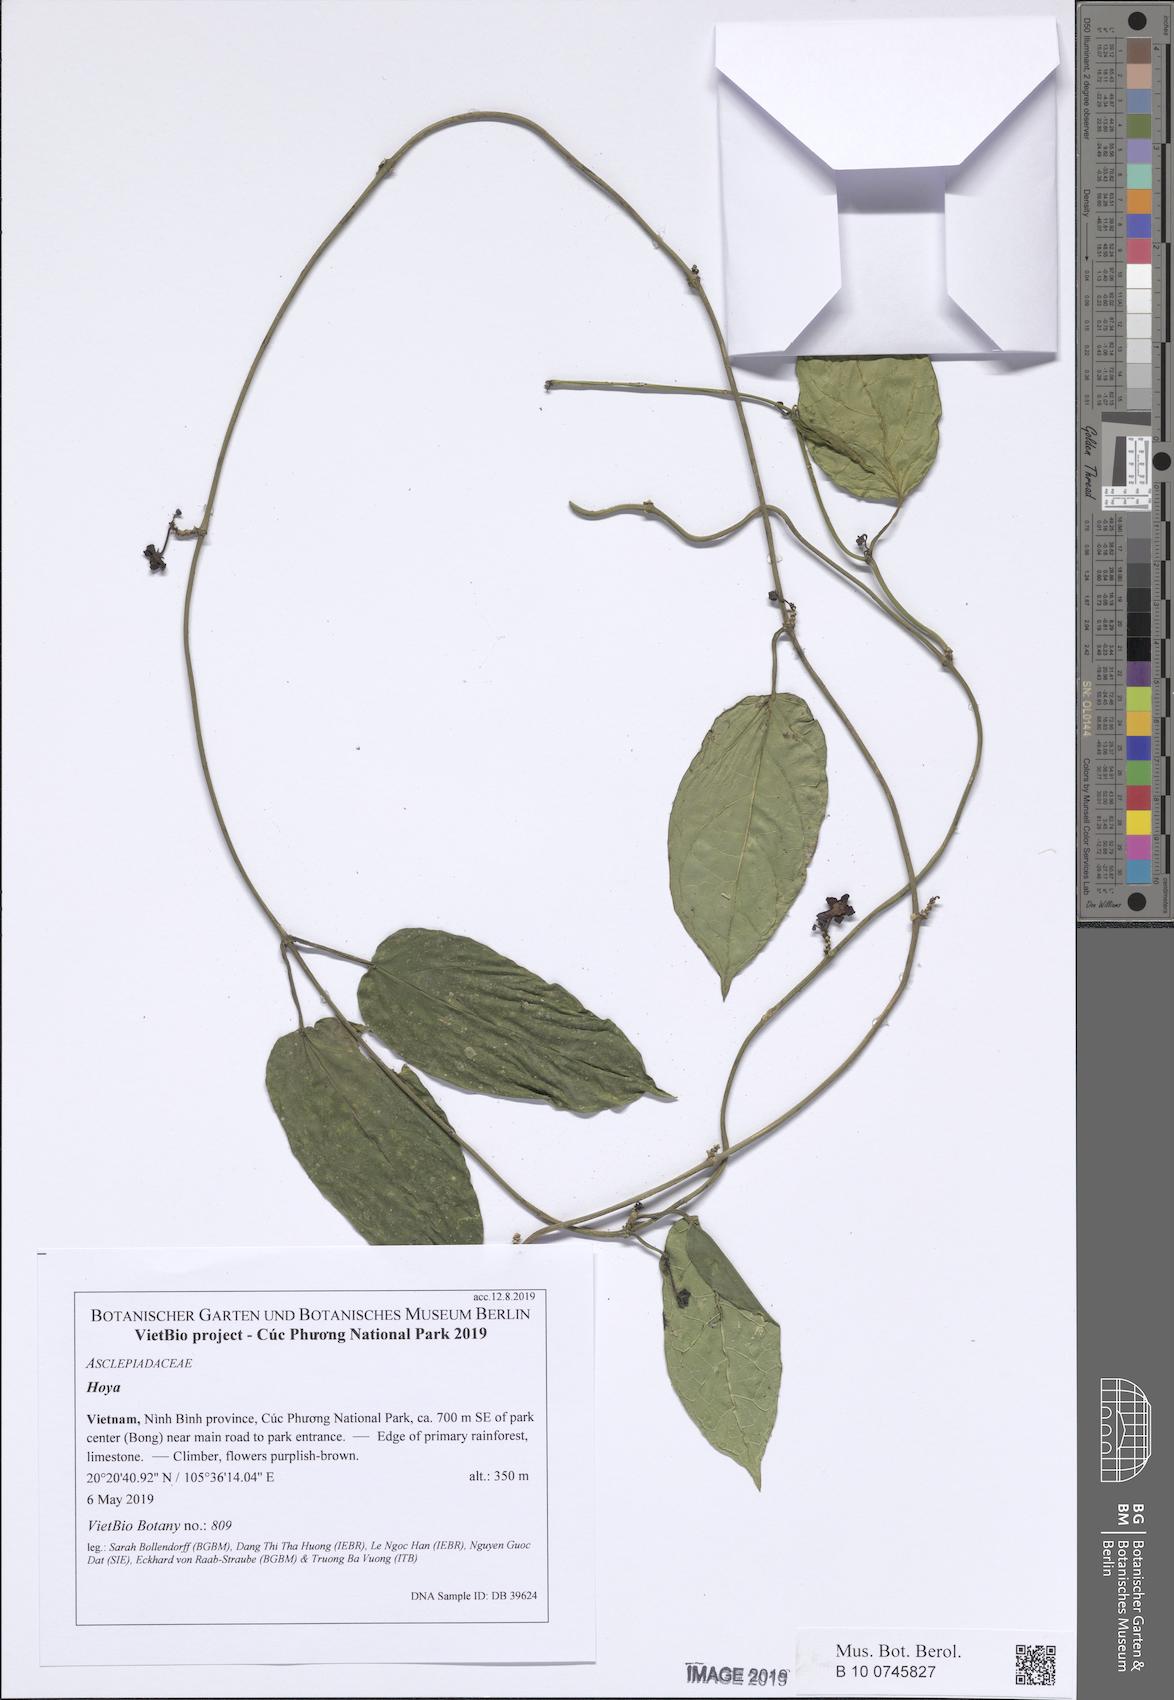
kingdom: Plantae
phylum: Tracheophyta
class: Magnoliopsida
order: Gentianales
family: Apocynaceae
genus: Heterostemma
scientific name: Heterostemma cucphuongense
